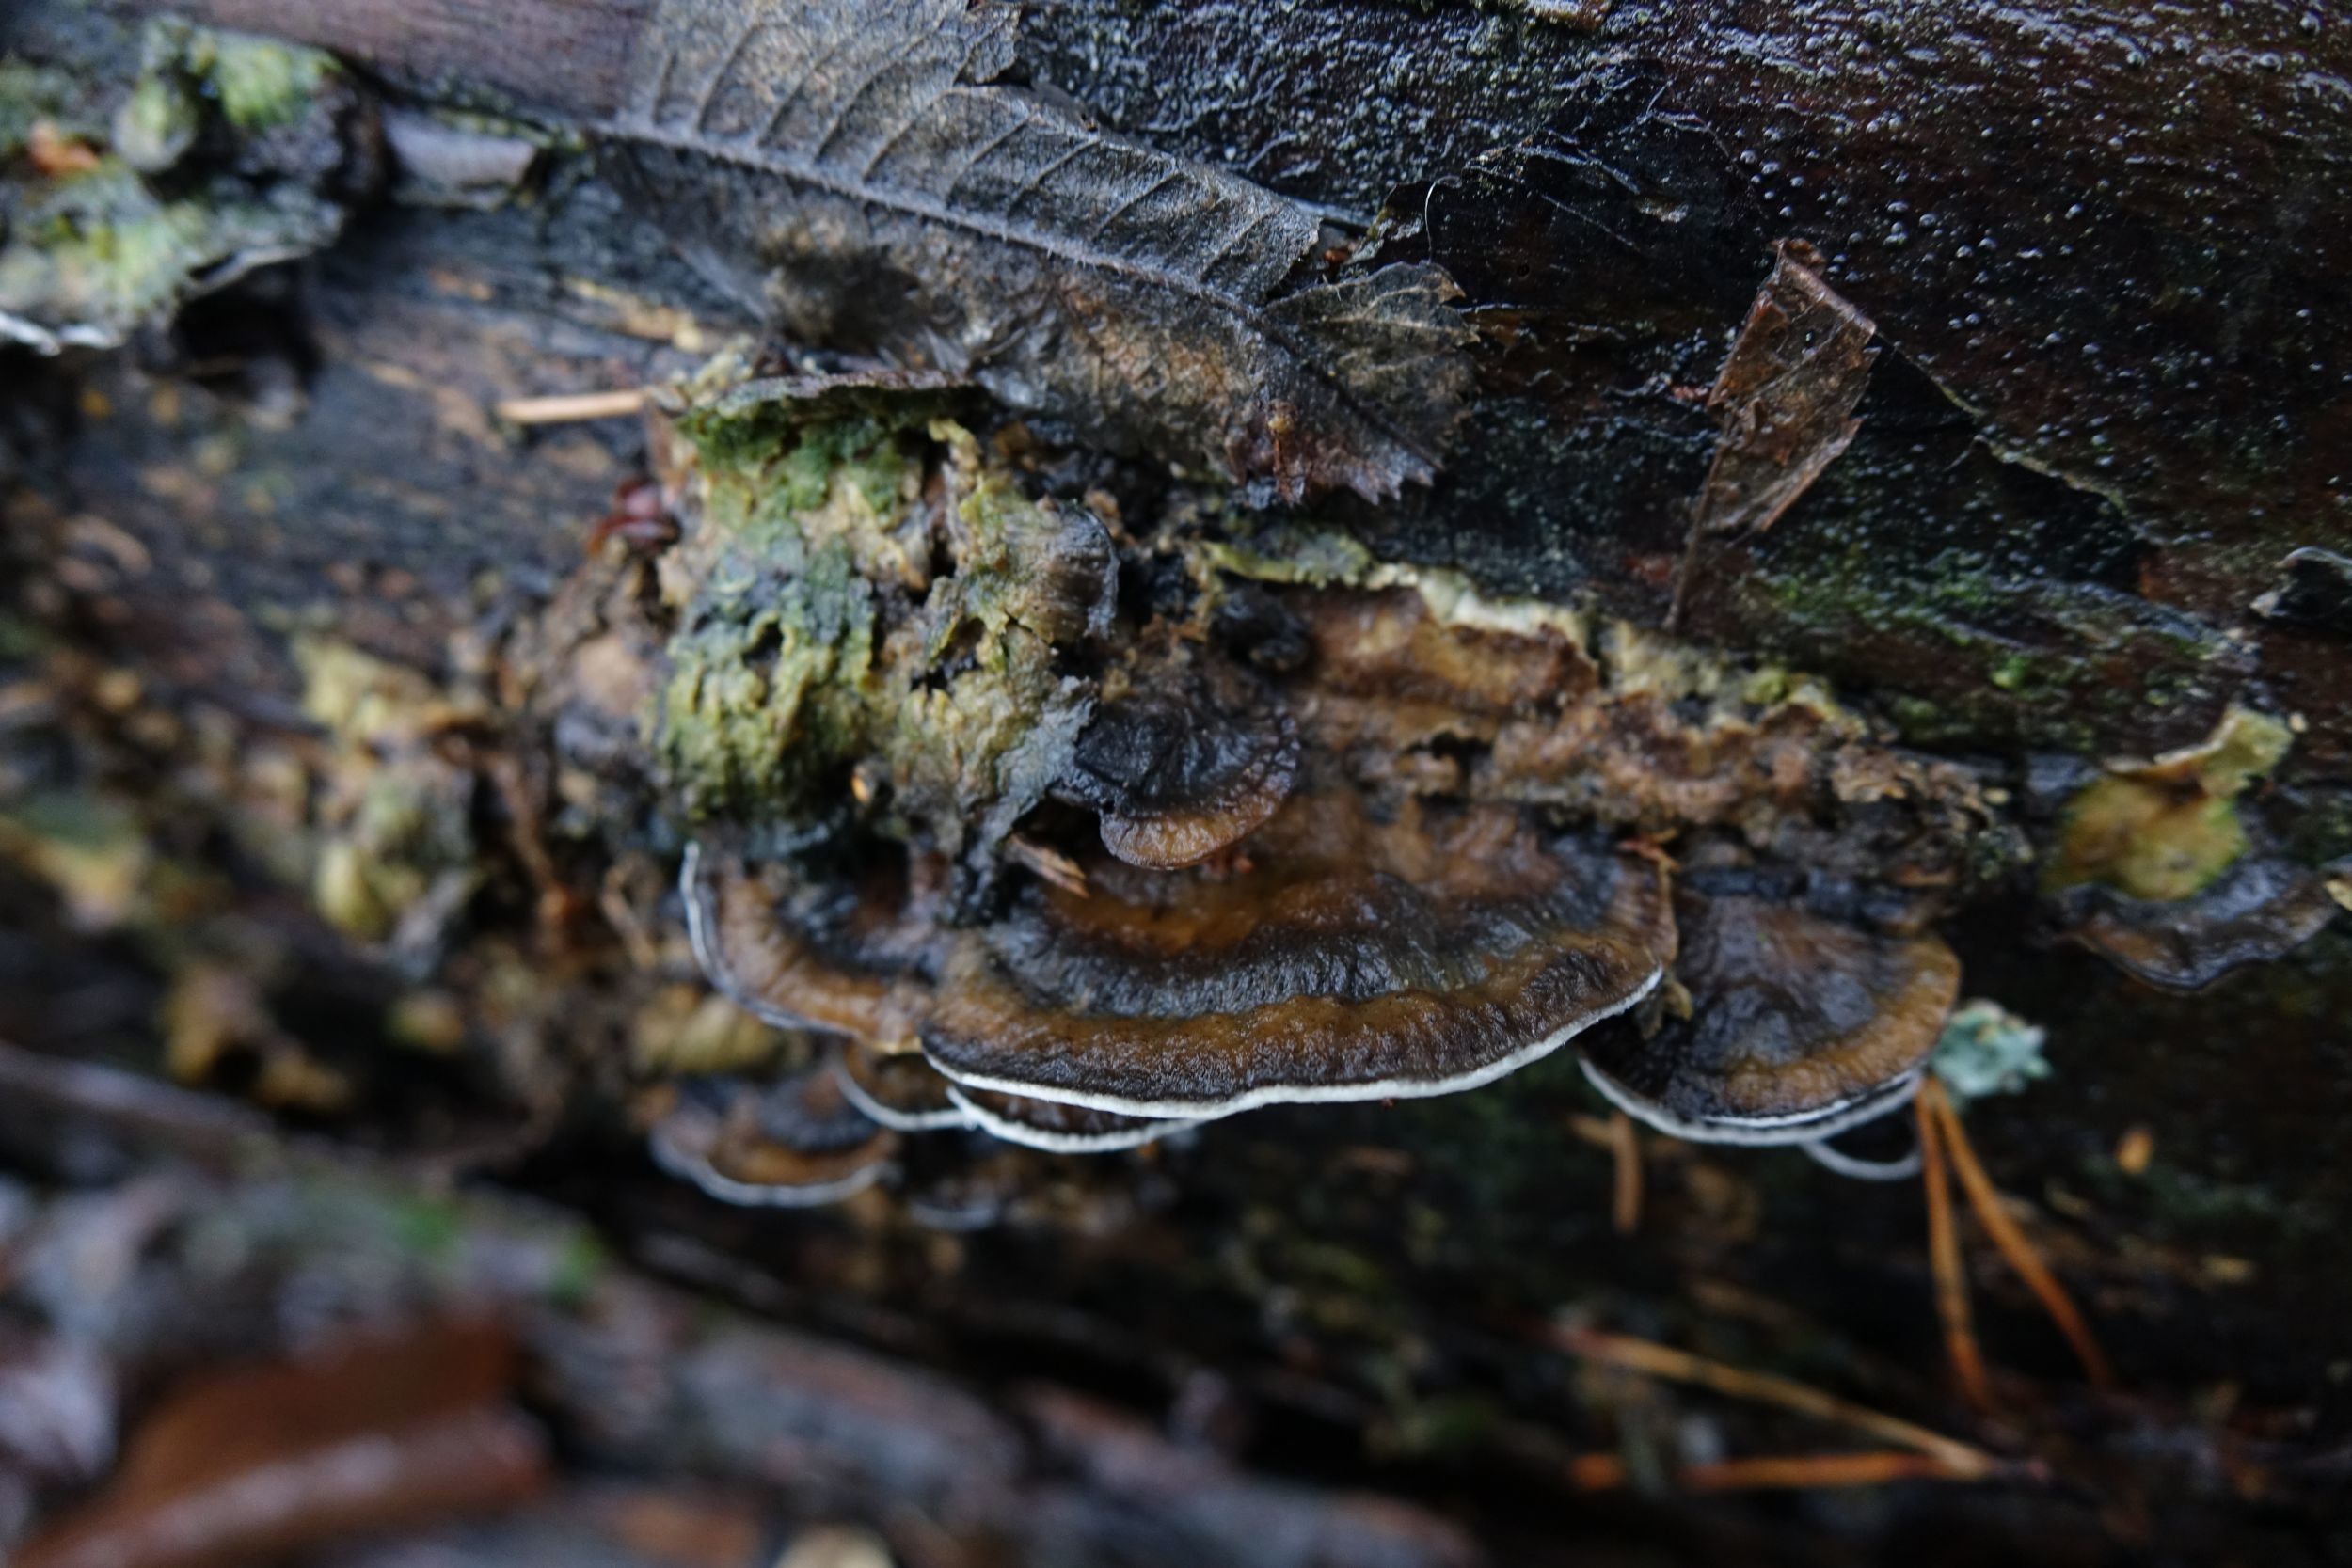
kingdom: Fungi
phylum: Basidiomycota
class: Agaricomycetes
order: Polyporales
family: Phanerochaetaceae
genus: Bjerkandera
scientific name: Bjerkandera adusta
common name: Smoky bracket
